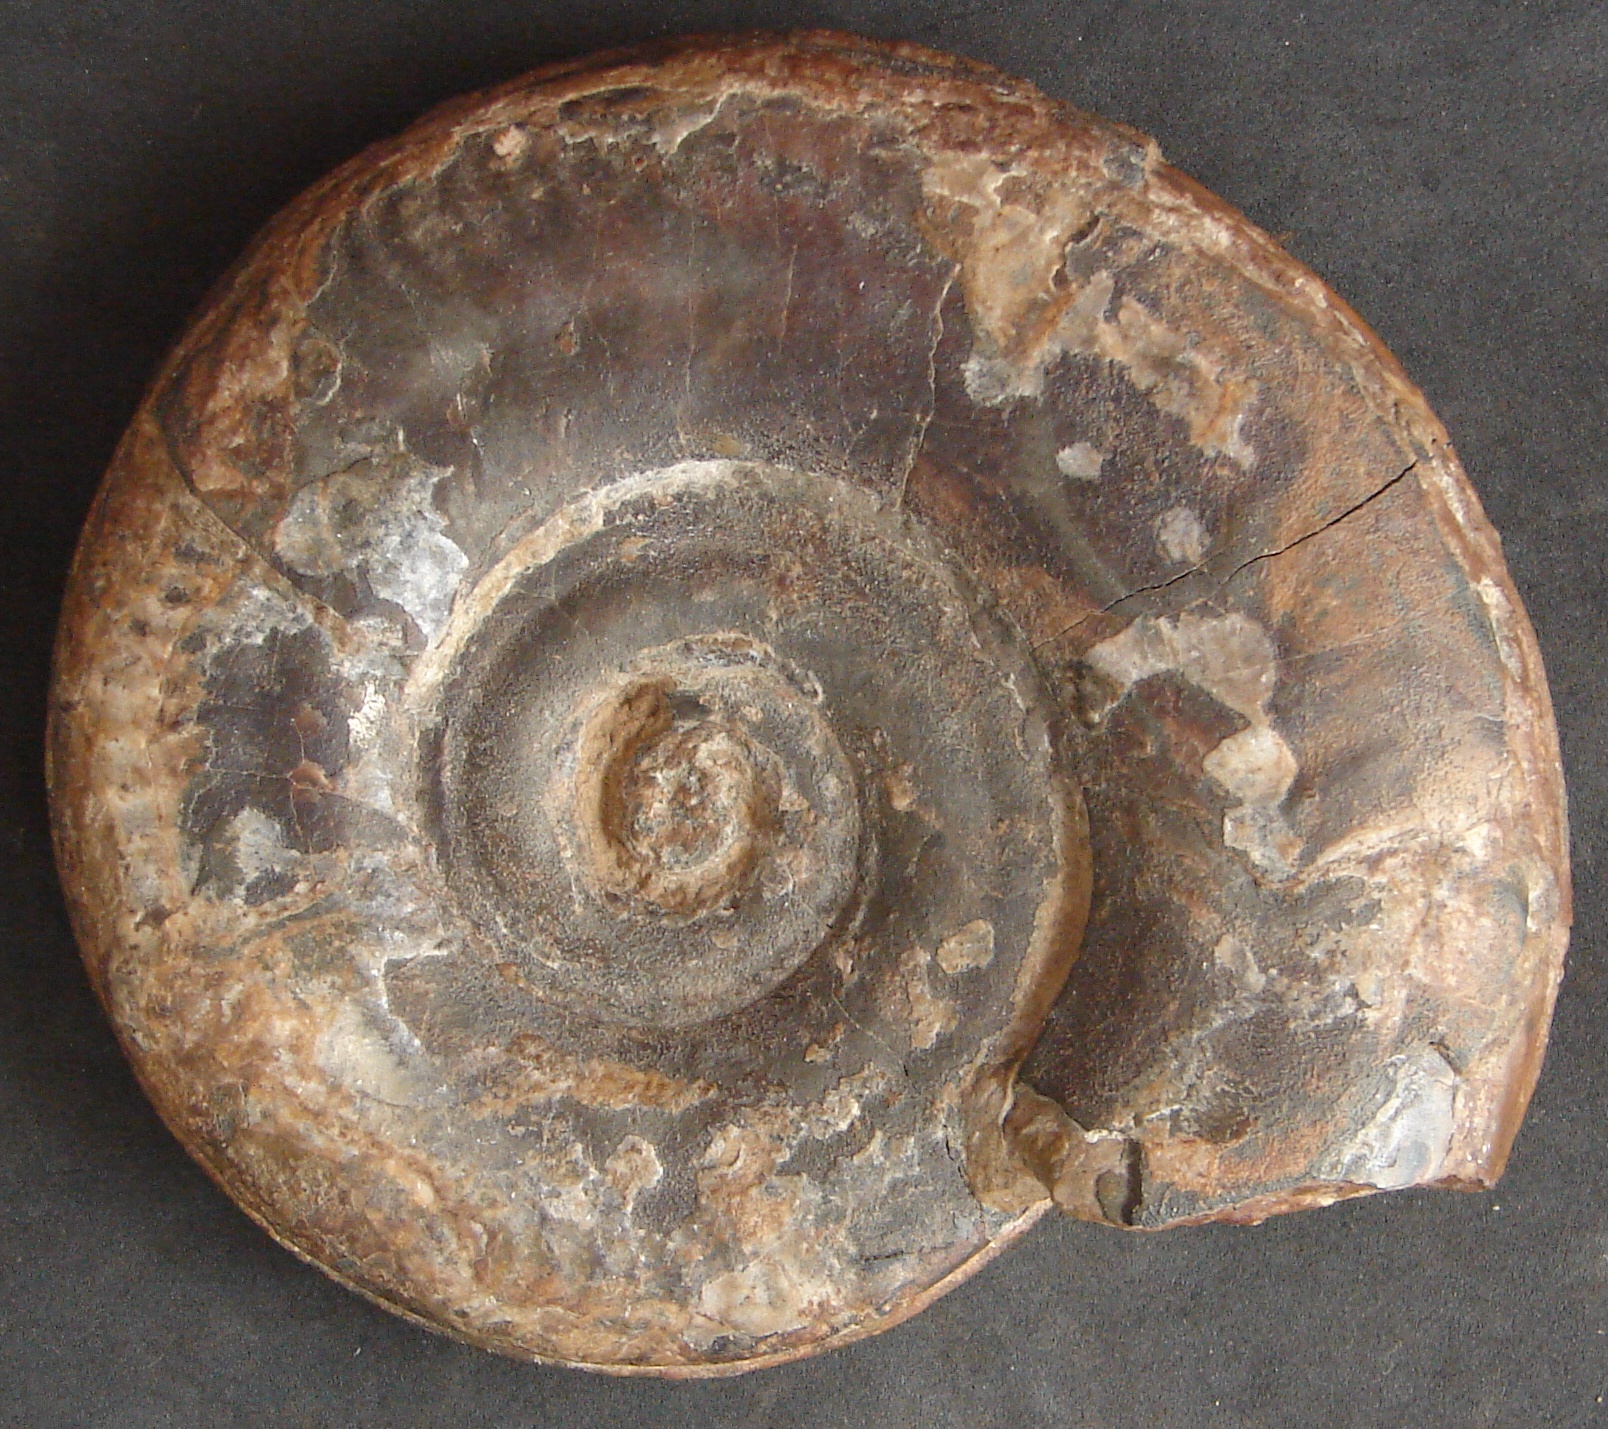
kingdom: Animalia
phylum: Mollusca
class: Cephalopoda
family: Hildoceratidae
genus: Hildoceras
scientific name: Hildoceras bifrons
